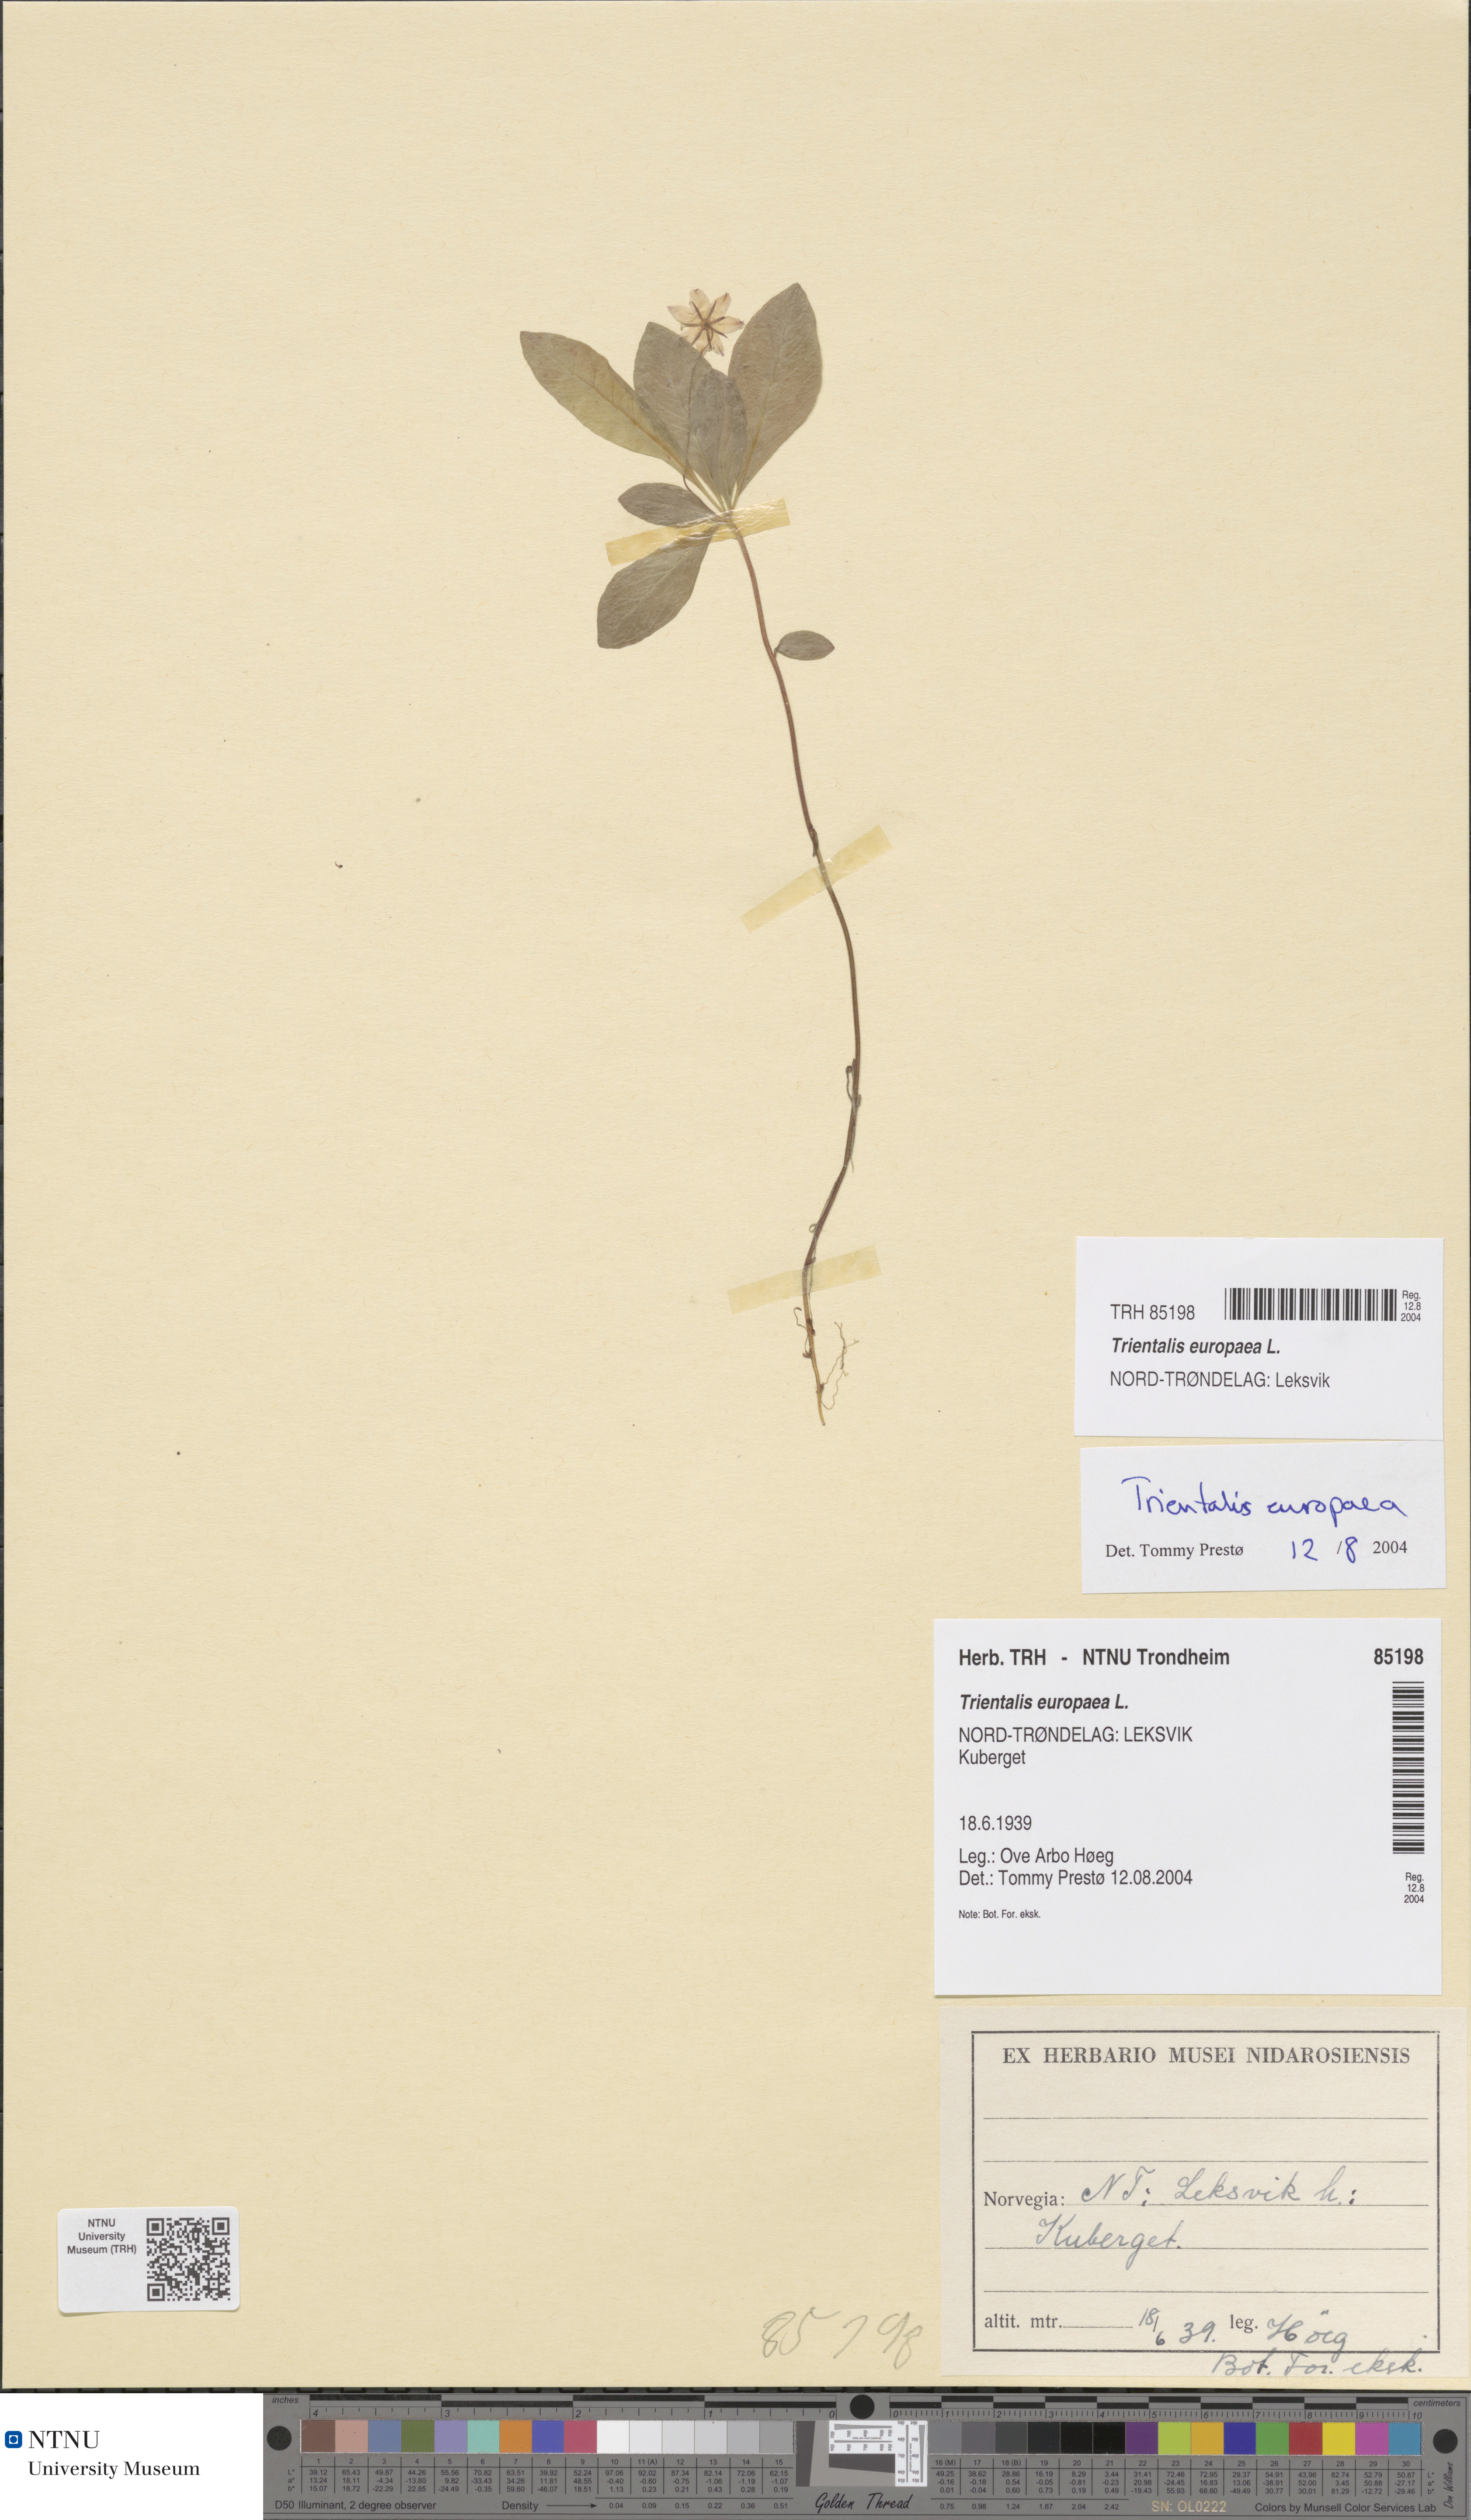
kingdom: Plantae
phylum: Tracheophyta
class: Magnoliopsida
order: Ericales
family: Primulaceae
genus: Lysimachia
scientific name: Lysimachia europaea
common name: Arctic starflower
